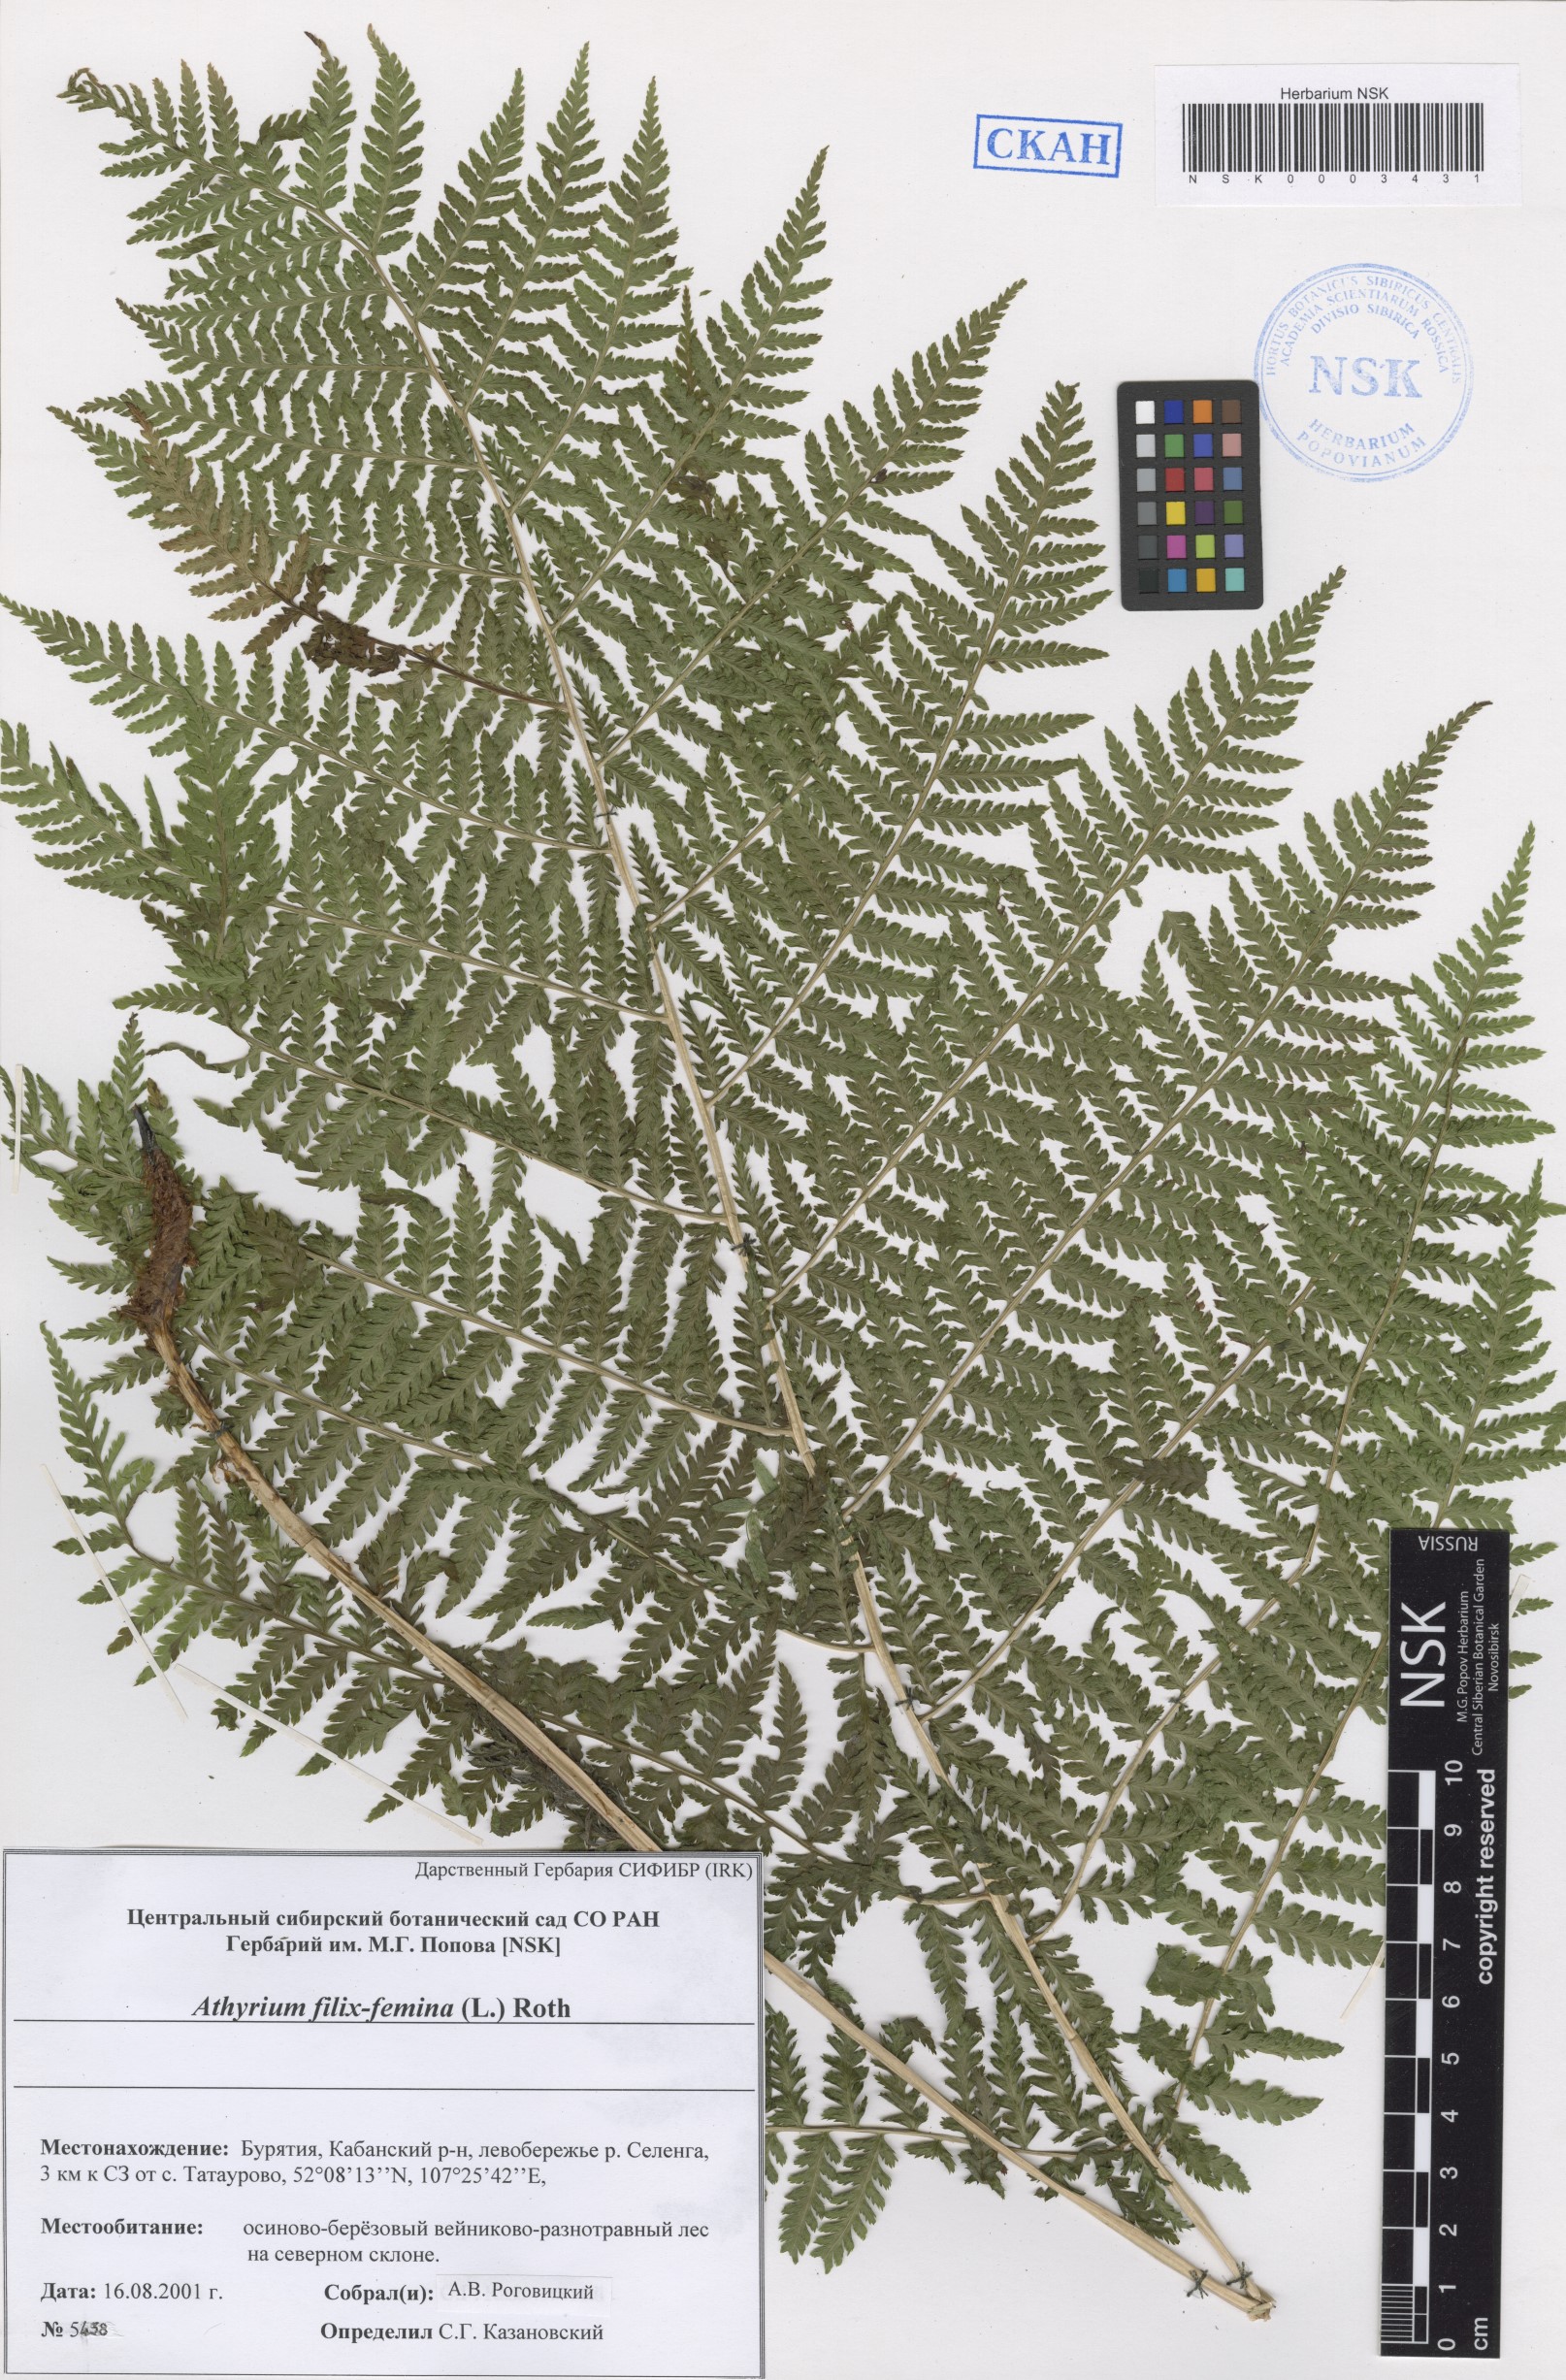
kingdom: Plantae
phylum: Tracheophyta
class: Polypodiopsida
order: Polypodiales
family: Athyriaceae
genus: Athyrium
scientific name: Athyrium filix-femina
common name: Lady fern
